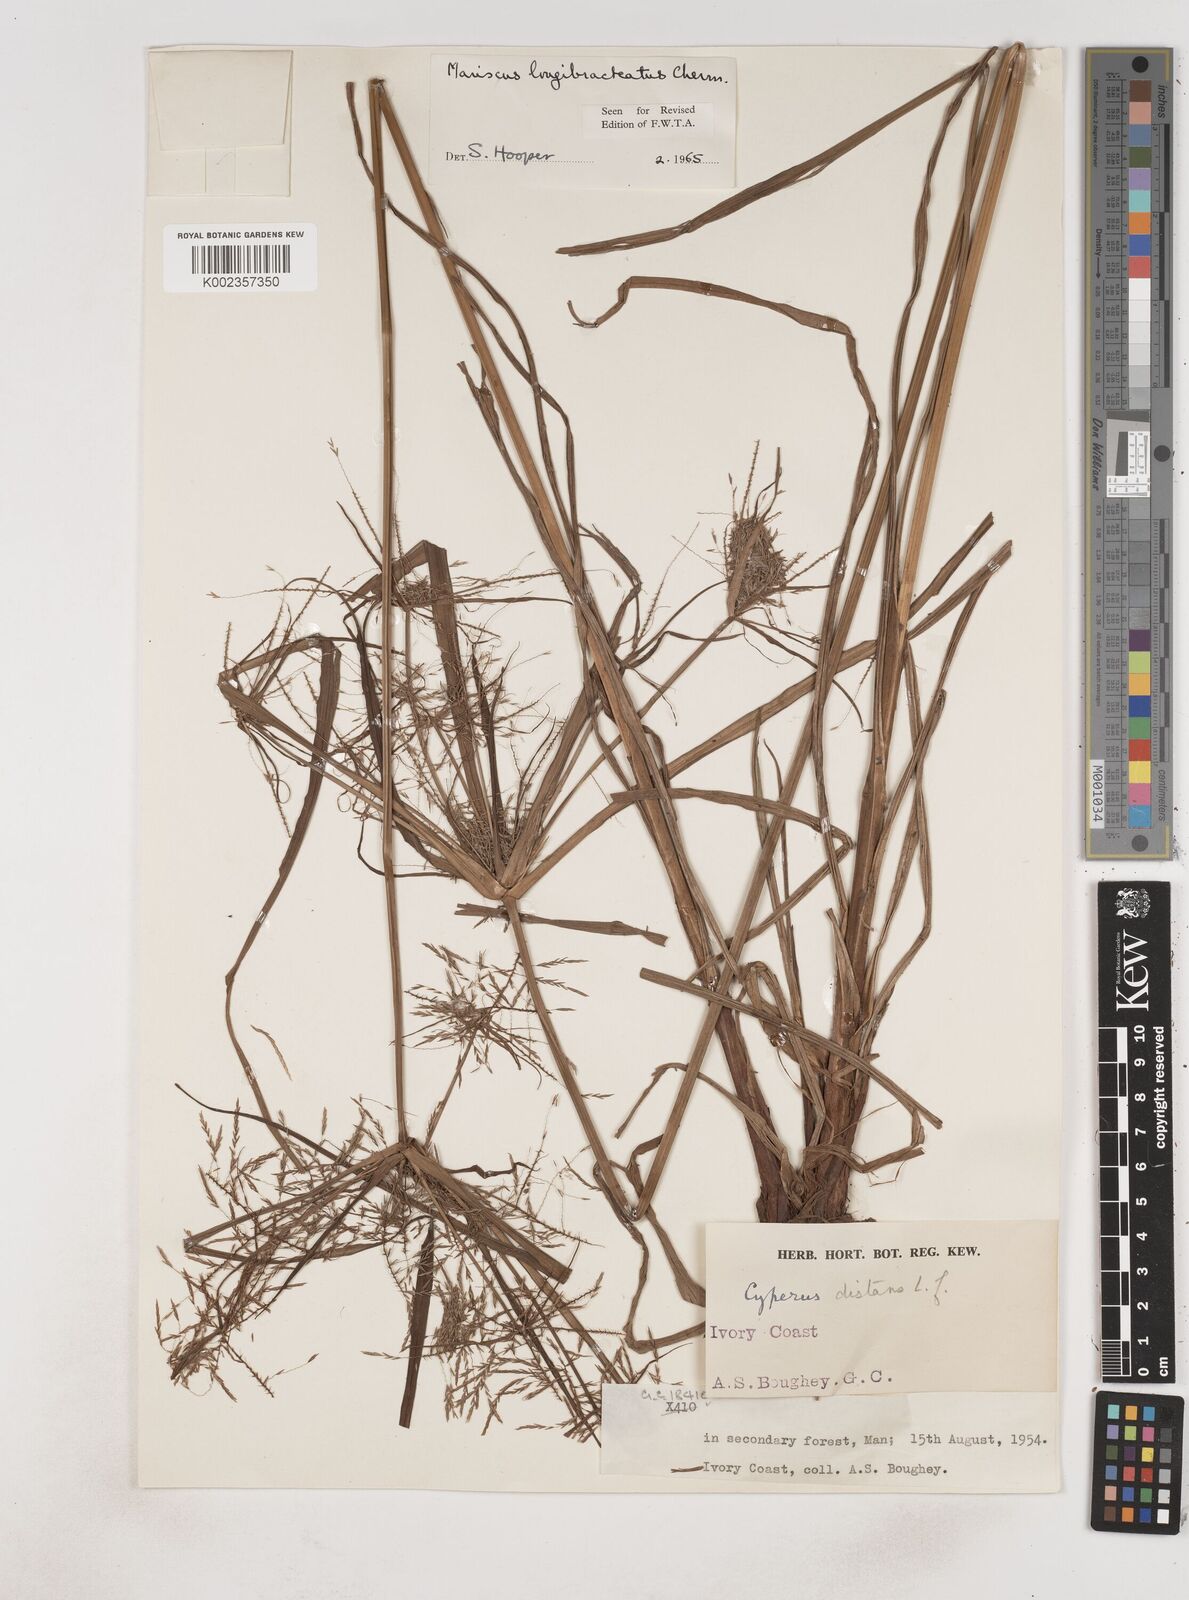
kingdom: Plantae
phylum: Tracheophyta
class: Liliopsida
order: Poales
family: Cyperaceae
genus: Cyperus
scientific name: Cyperus distans
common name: Slender cyperus
